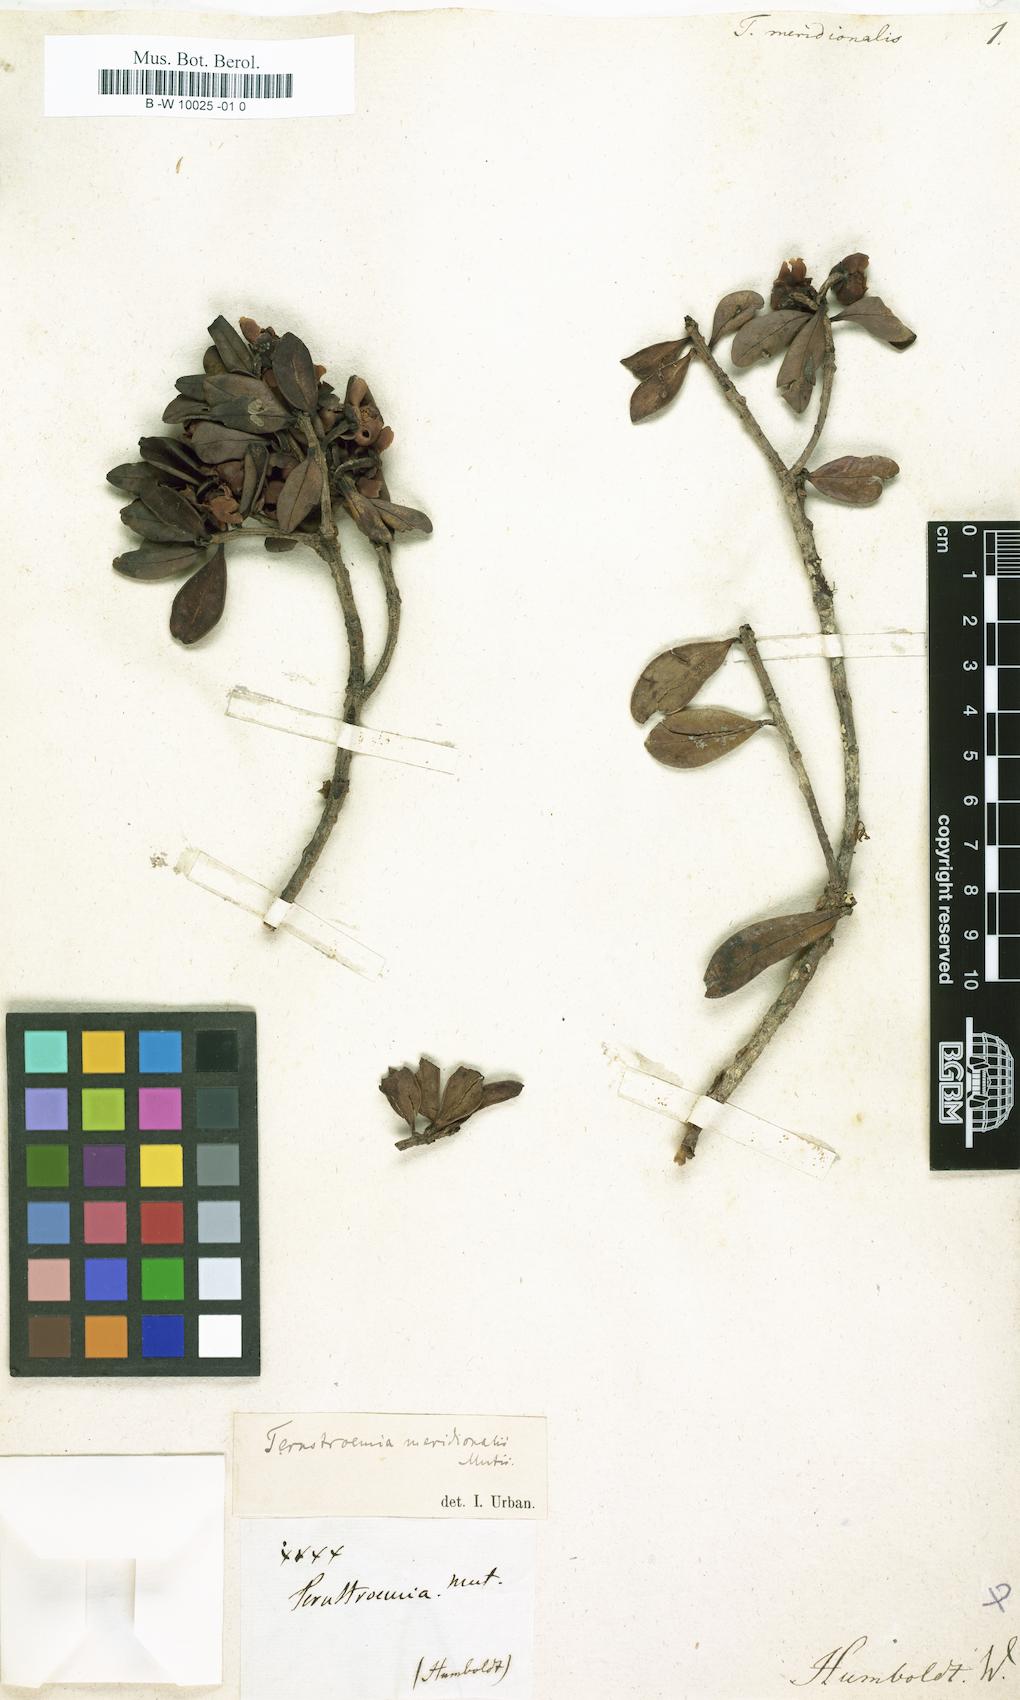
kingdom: Plantae
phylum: Tracheophyta
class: Magnoliopsida
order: Ericales
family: Pentaphylacaceae
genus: Ternstroemia
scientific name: Ternstroemia meridionalis
